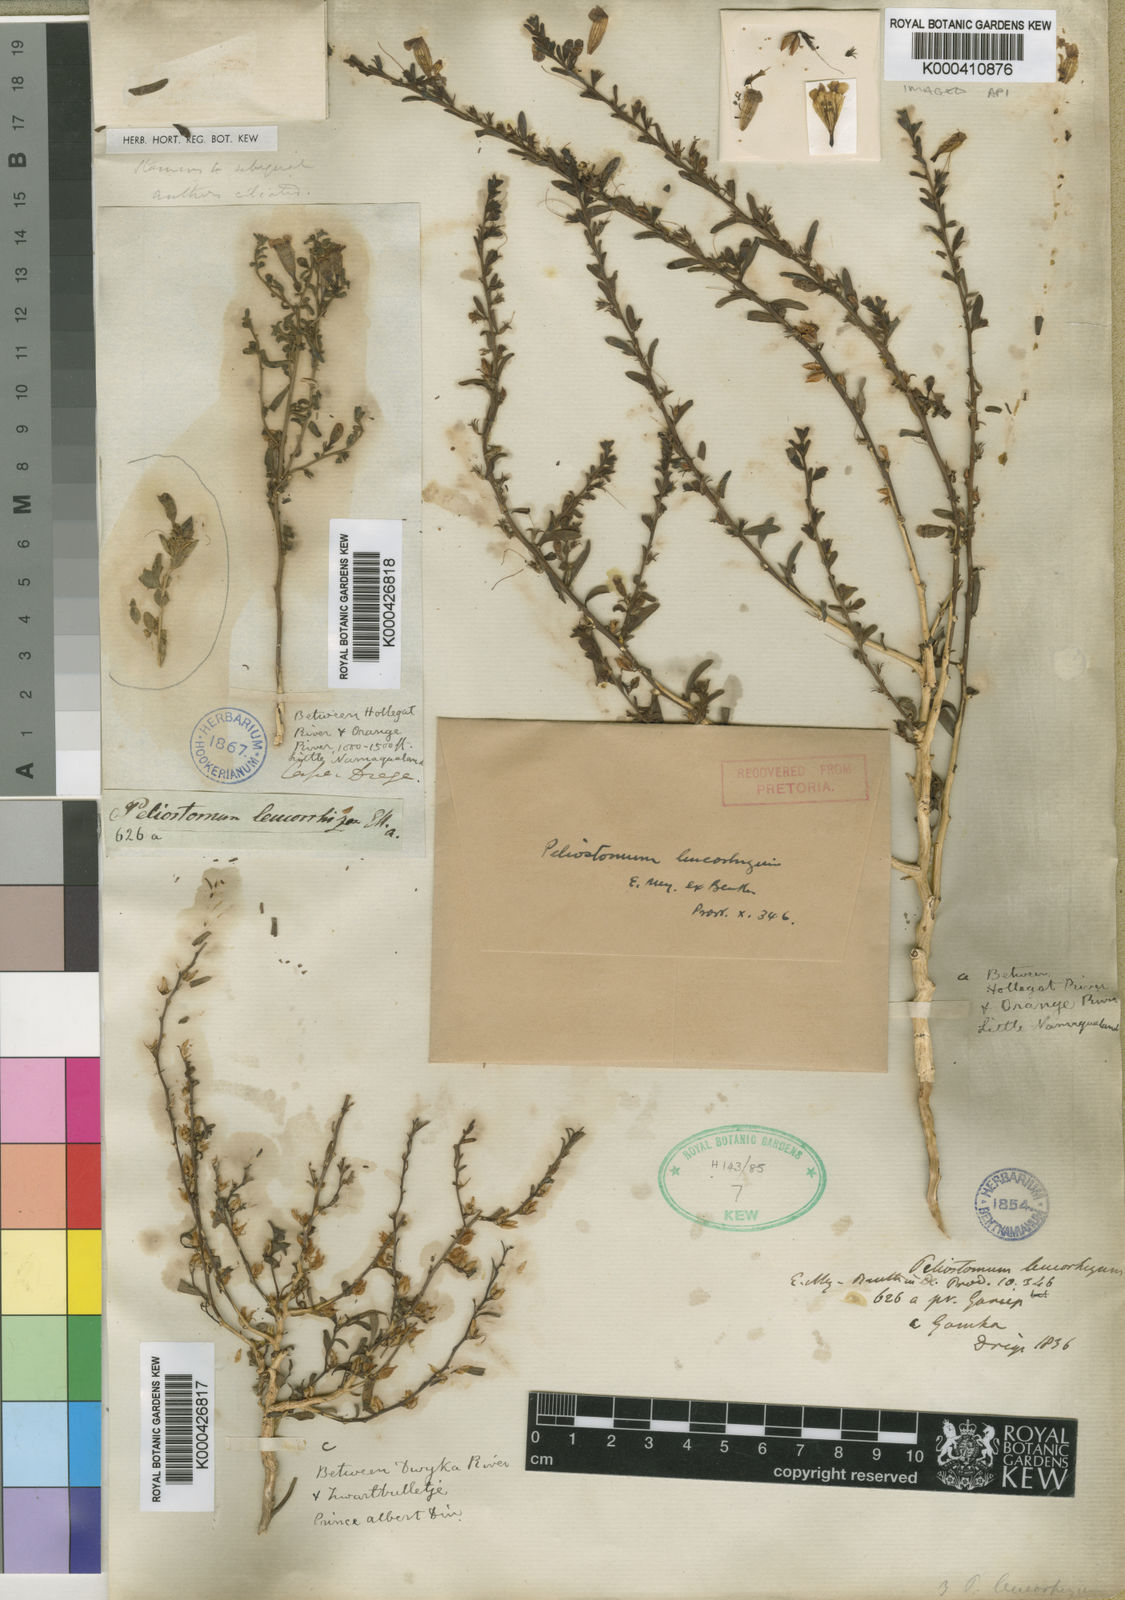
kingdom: Plantae
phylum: Tracheophyta
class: Magnoliopsida
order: Lamiales
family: Scrophulariaceae
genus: Peliostomum
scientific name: Peliostomum origanoides
